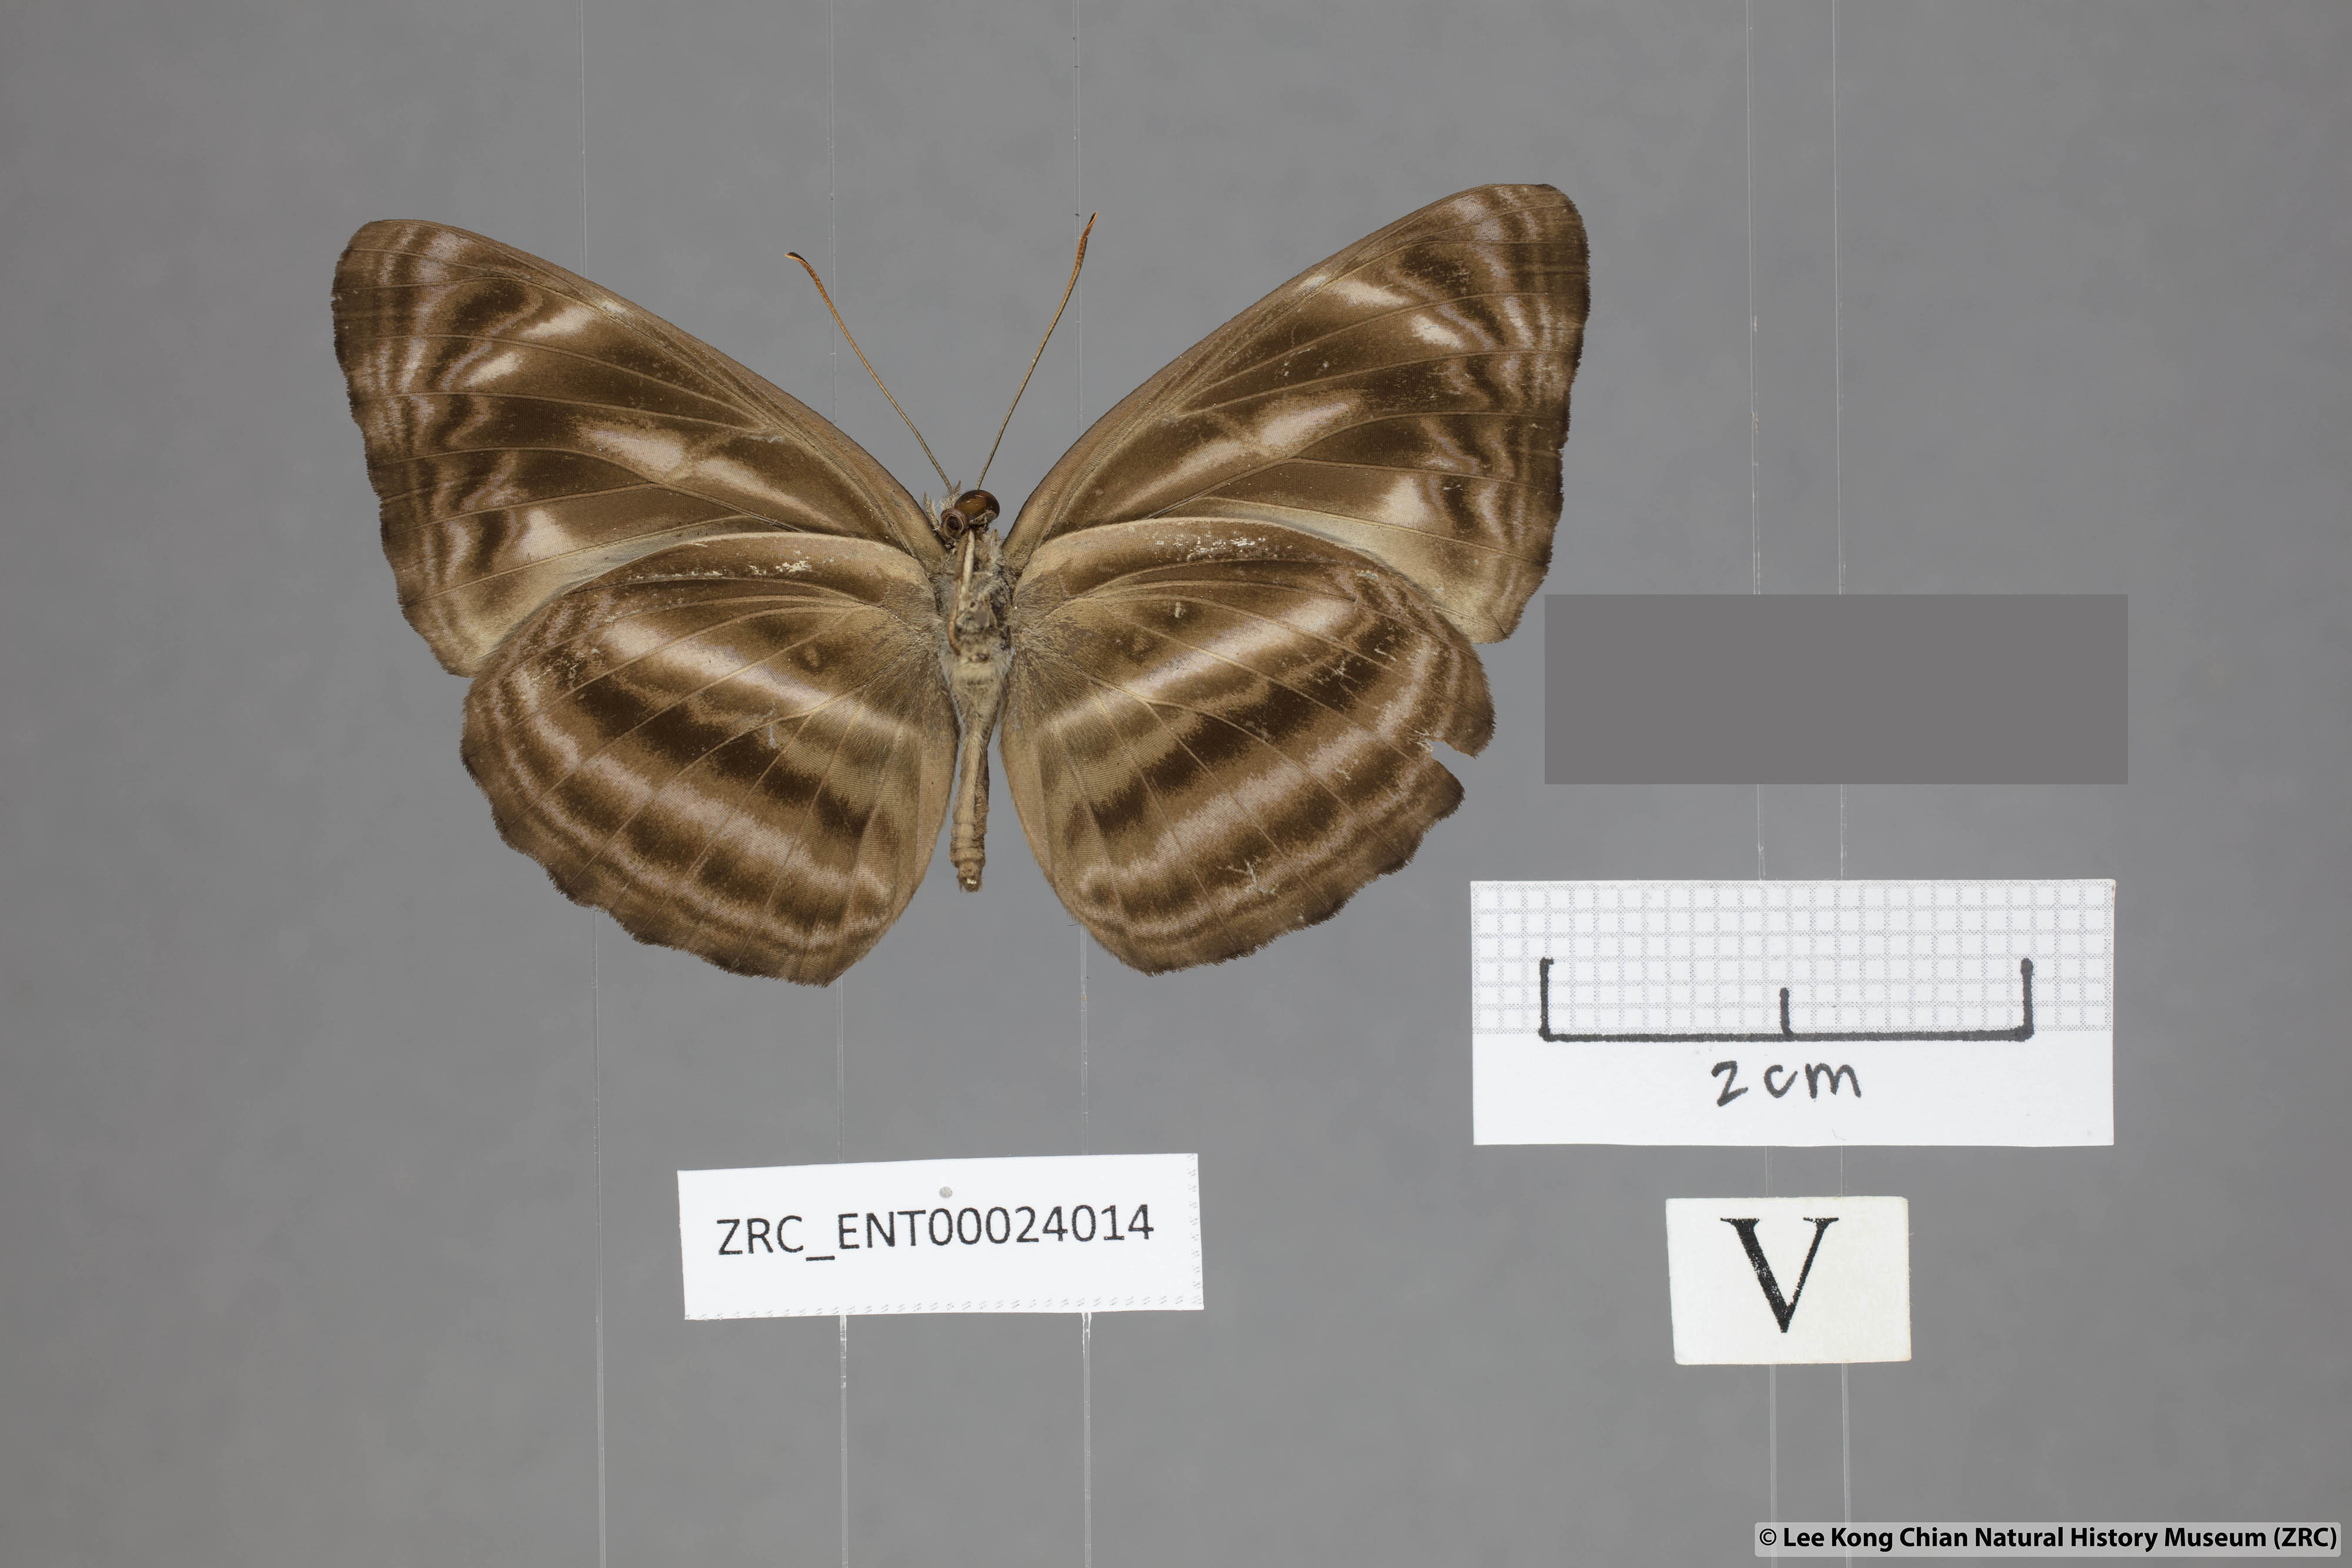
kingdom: Animalia
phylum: Arthropoda
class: Insecta
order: Lepidoptera
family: Nymphalidae
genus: Neptis
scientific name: Neptis ilira
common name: Dark dingy sailor
